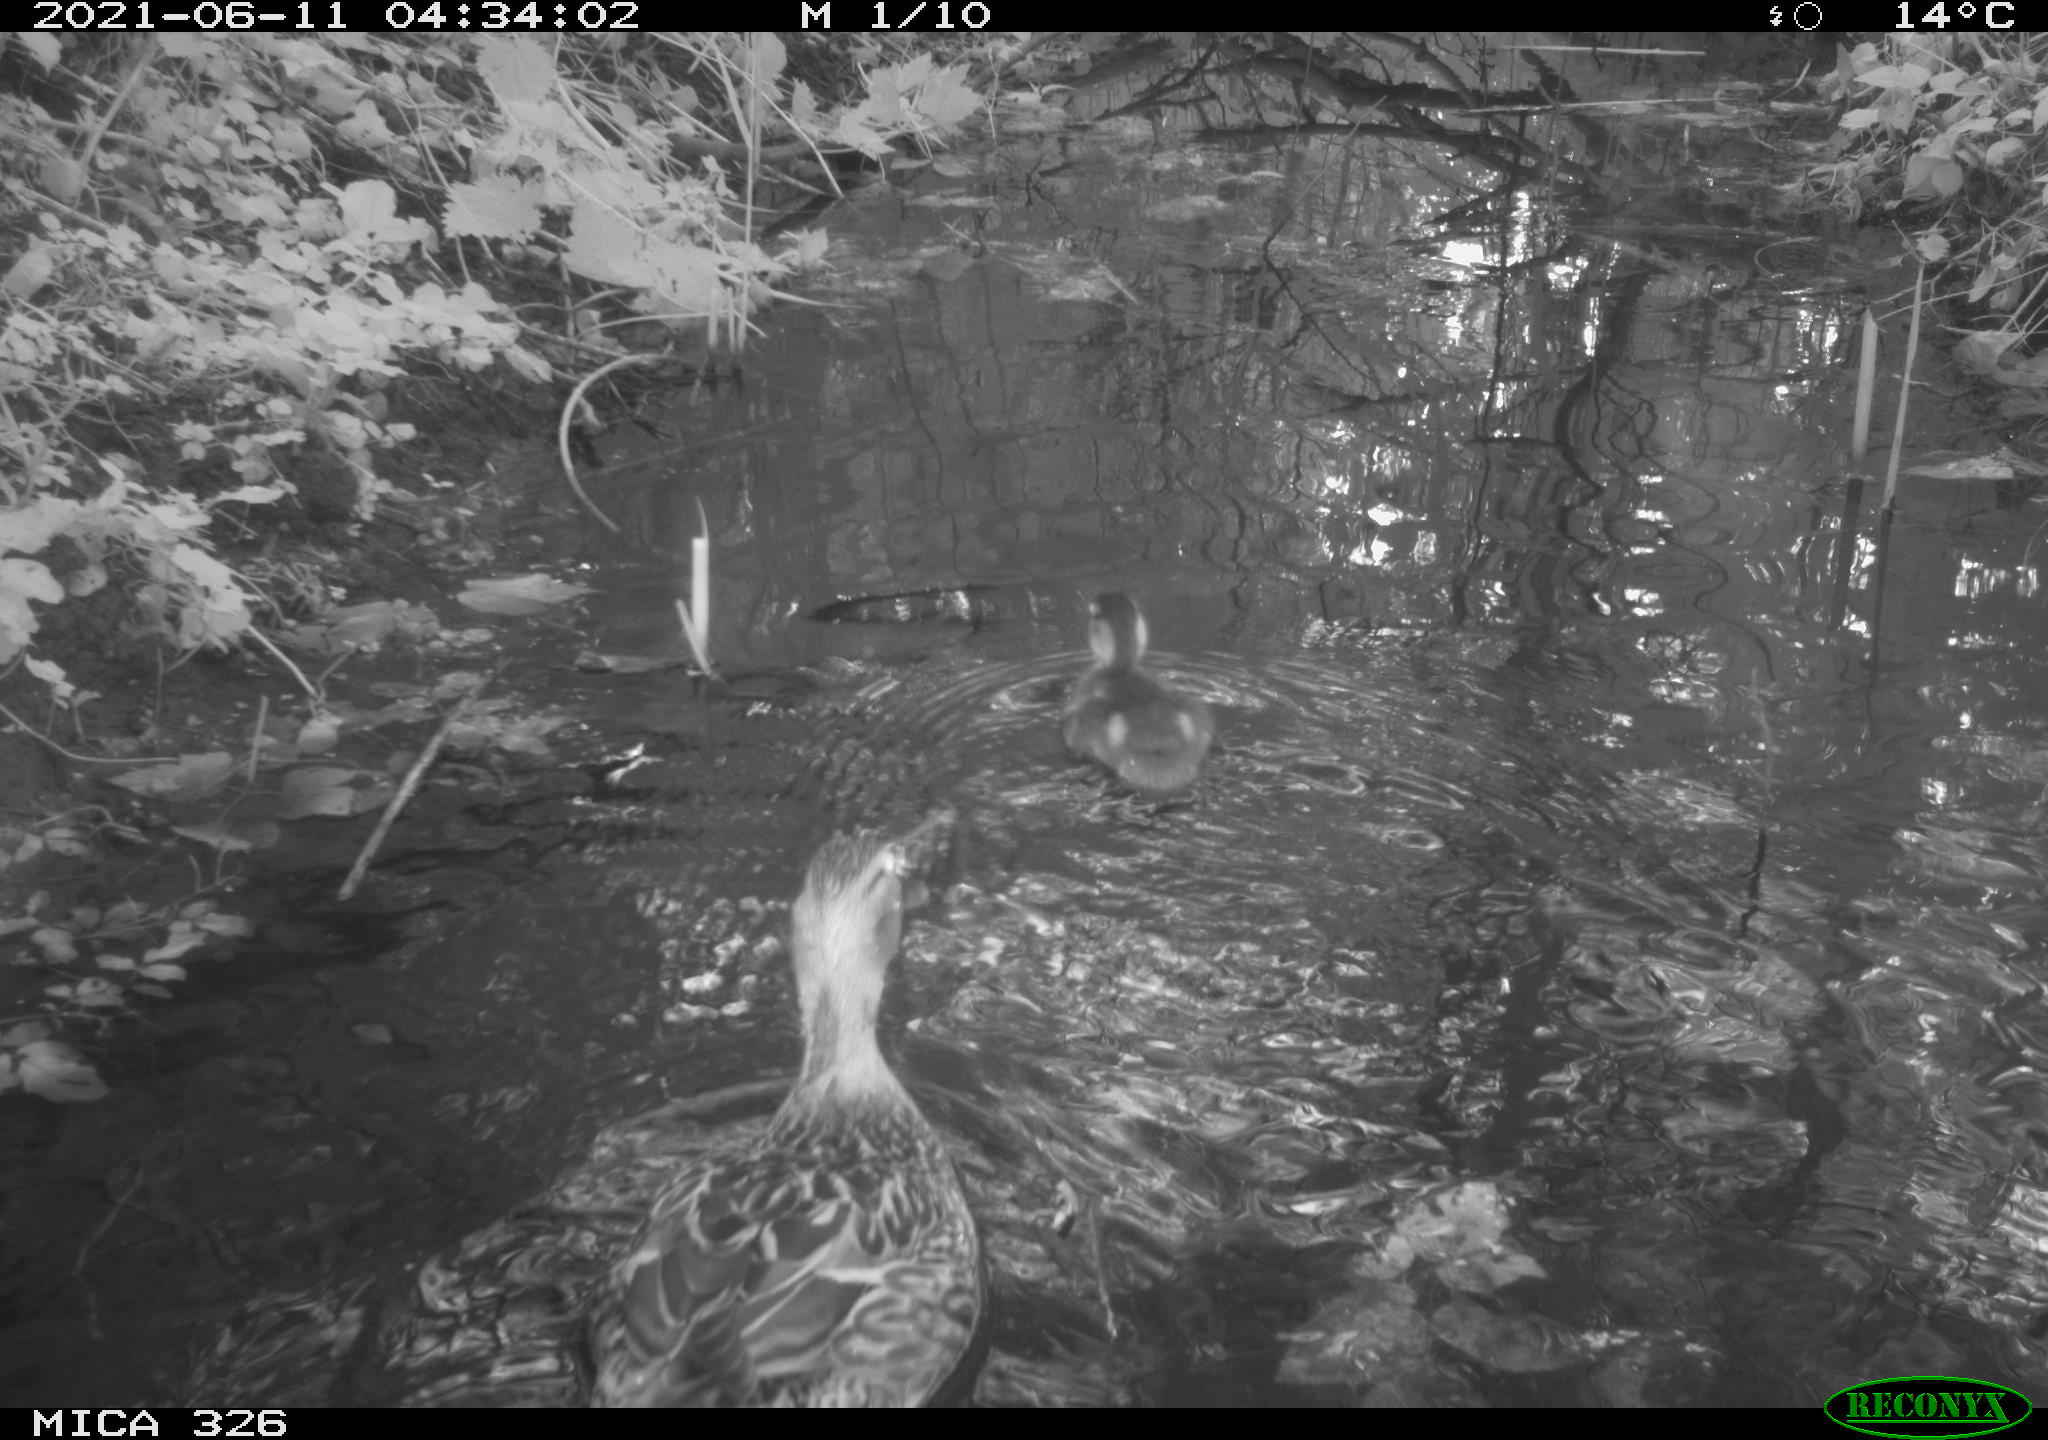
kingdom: Animalia
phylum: Chordata
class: Aves
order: Anseriformes
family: Anatidae
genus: Anas
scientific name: Anas platyrhynchos
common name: Mallard
